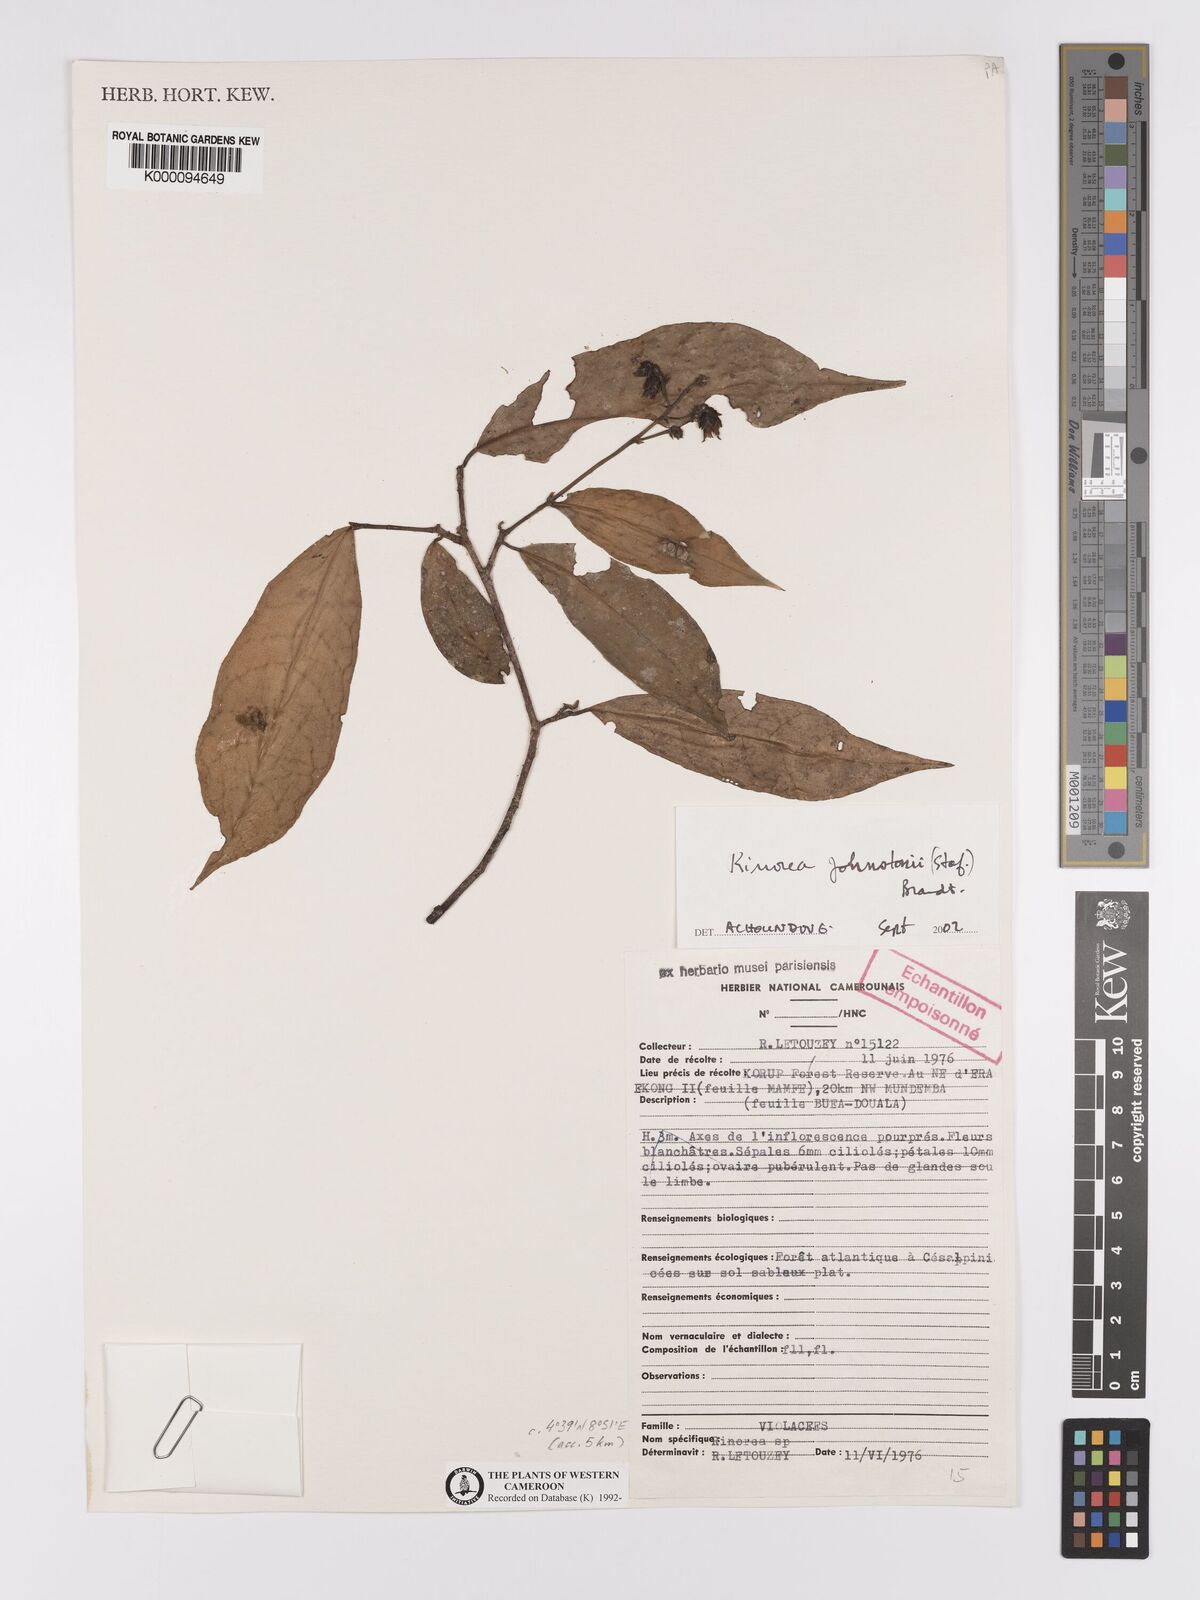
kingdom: Plantae
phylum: Tracheophyta
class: Magnoliopsida
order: Malpighiales
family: Violaceae
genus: Rinorea
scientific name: Rinorea
